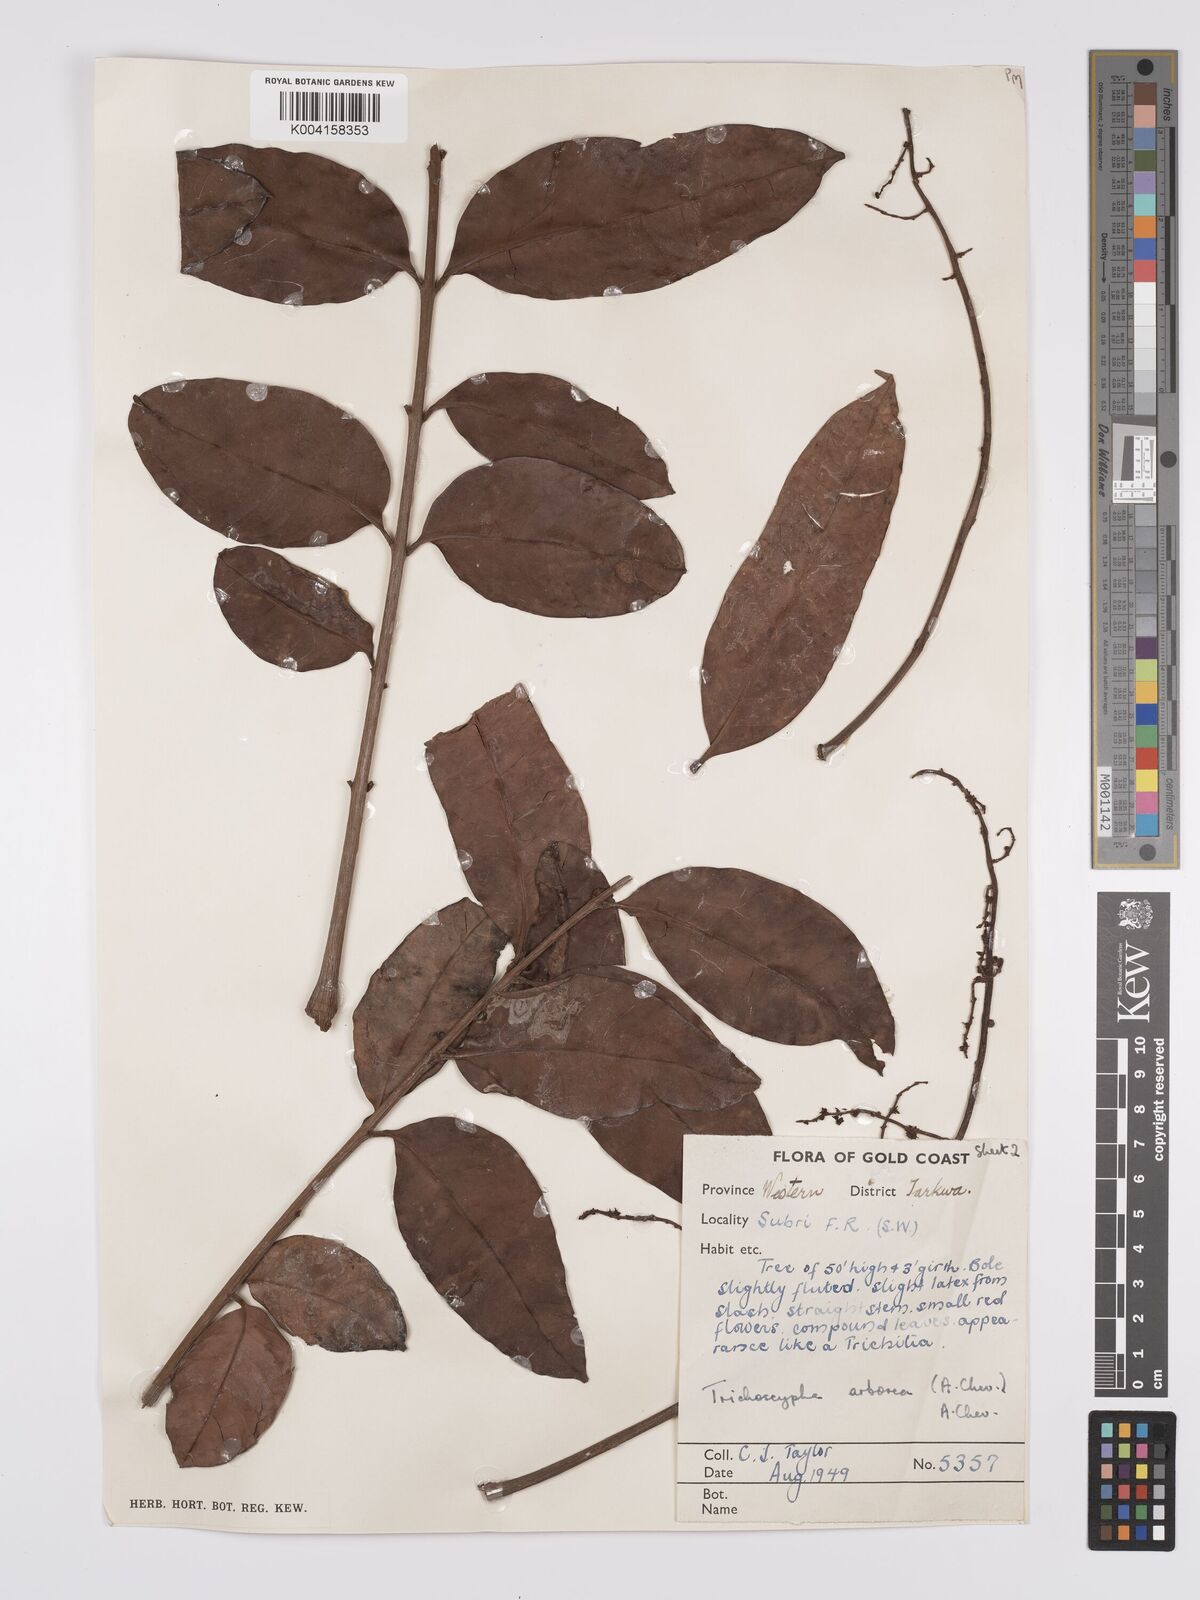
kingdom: Plantae
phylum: Tracheophyta
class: Magnoliopsida
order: Sapindales
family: Anacardiaceae
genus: Trichoscypha
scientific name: Trichoscypha arborea
